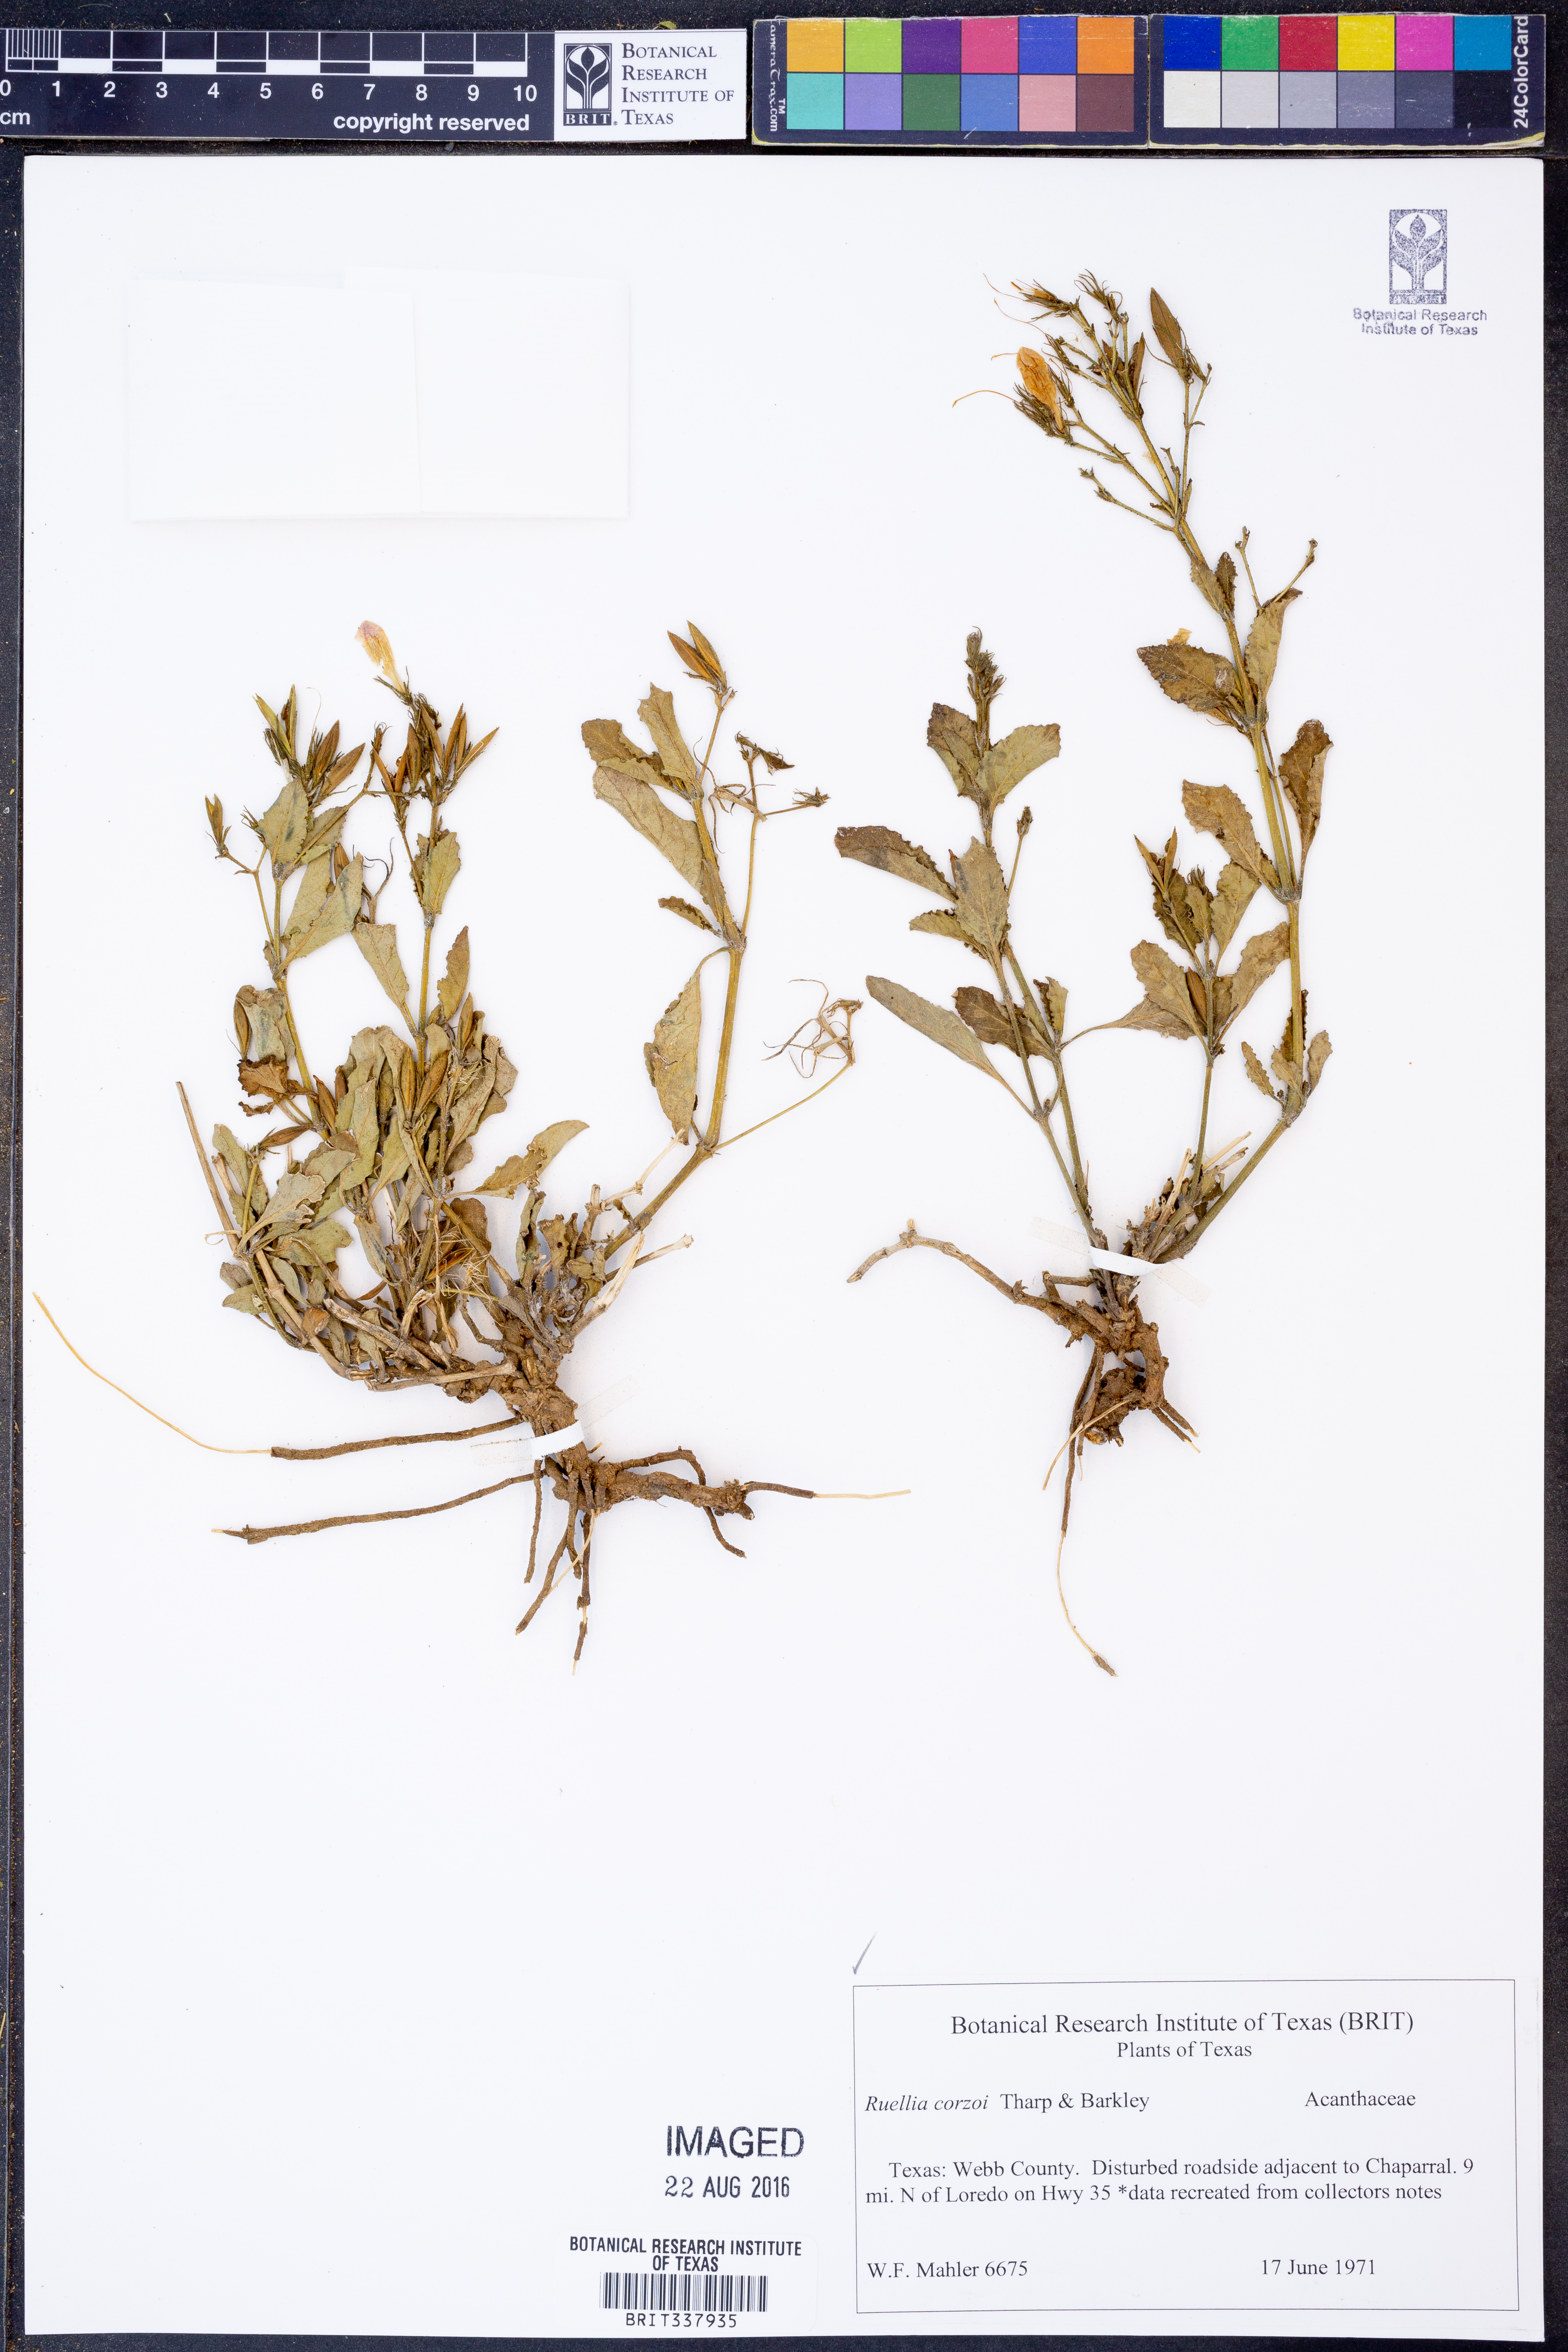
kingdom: Plantae
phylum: Tracheophyta
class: Magnoliopsida
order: Lamiales
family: Acanthaceae
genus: Ruellia
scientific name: Ruellia corzoi
